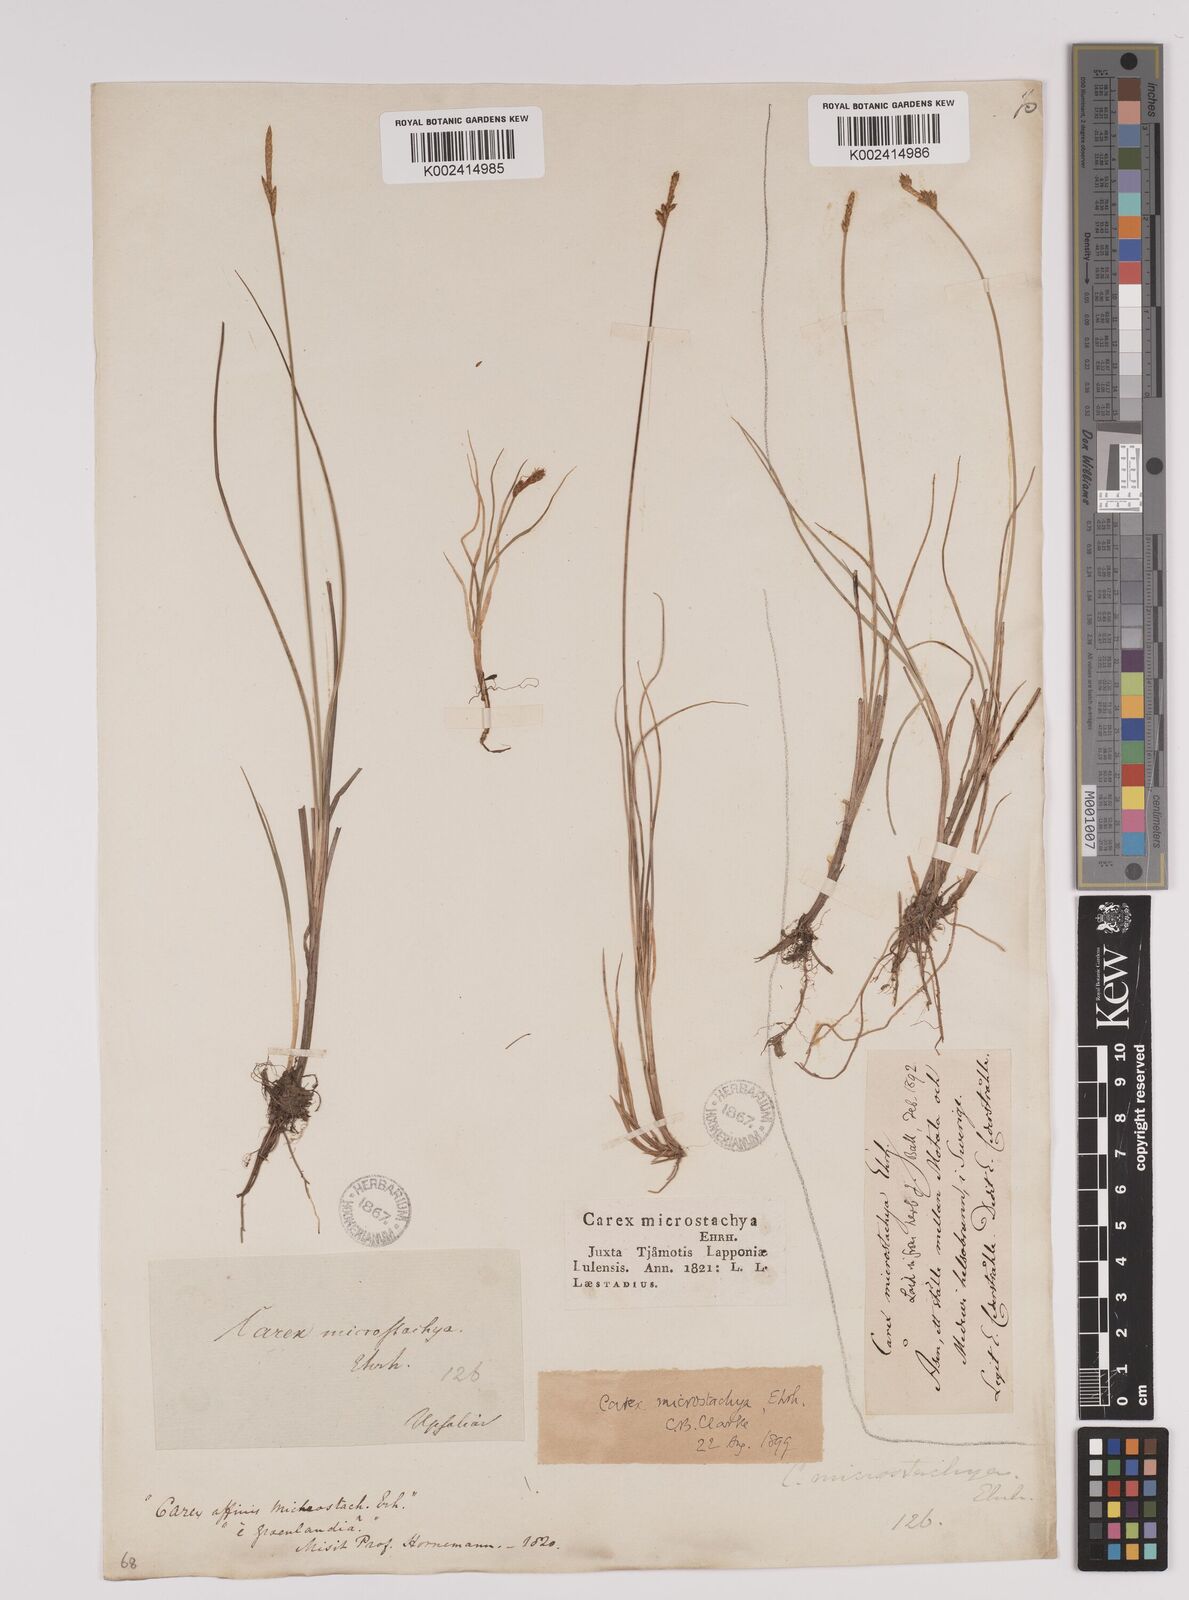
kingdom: Plantae
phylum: Tracheophyta
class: Liliopsida
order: Poales
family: Cyperaceae
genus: Carex
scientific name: Carex dioica
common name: Dioecious sedge
